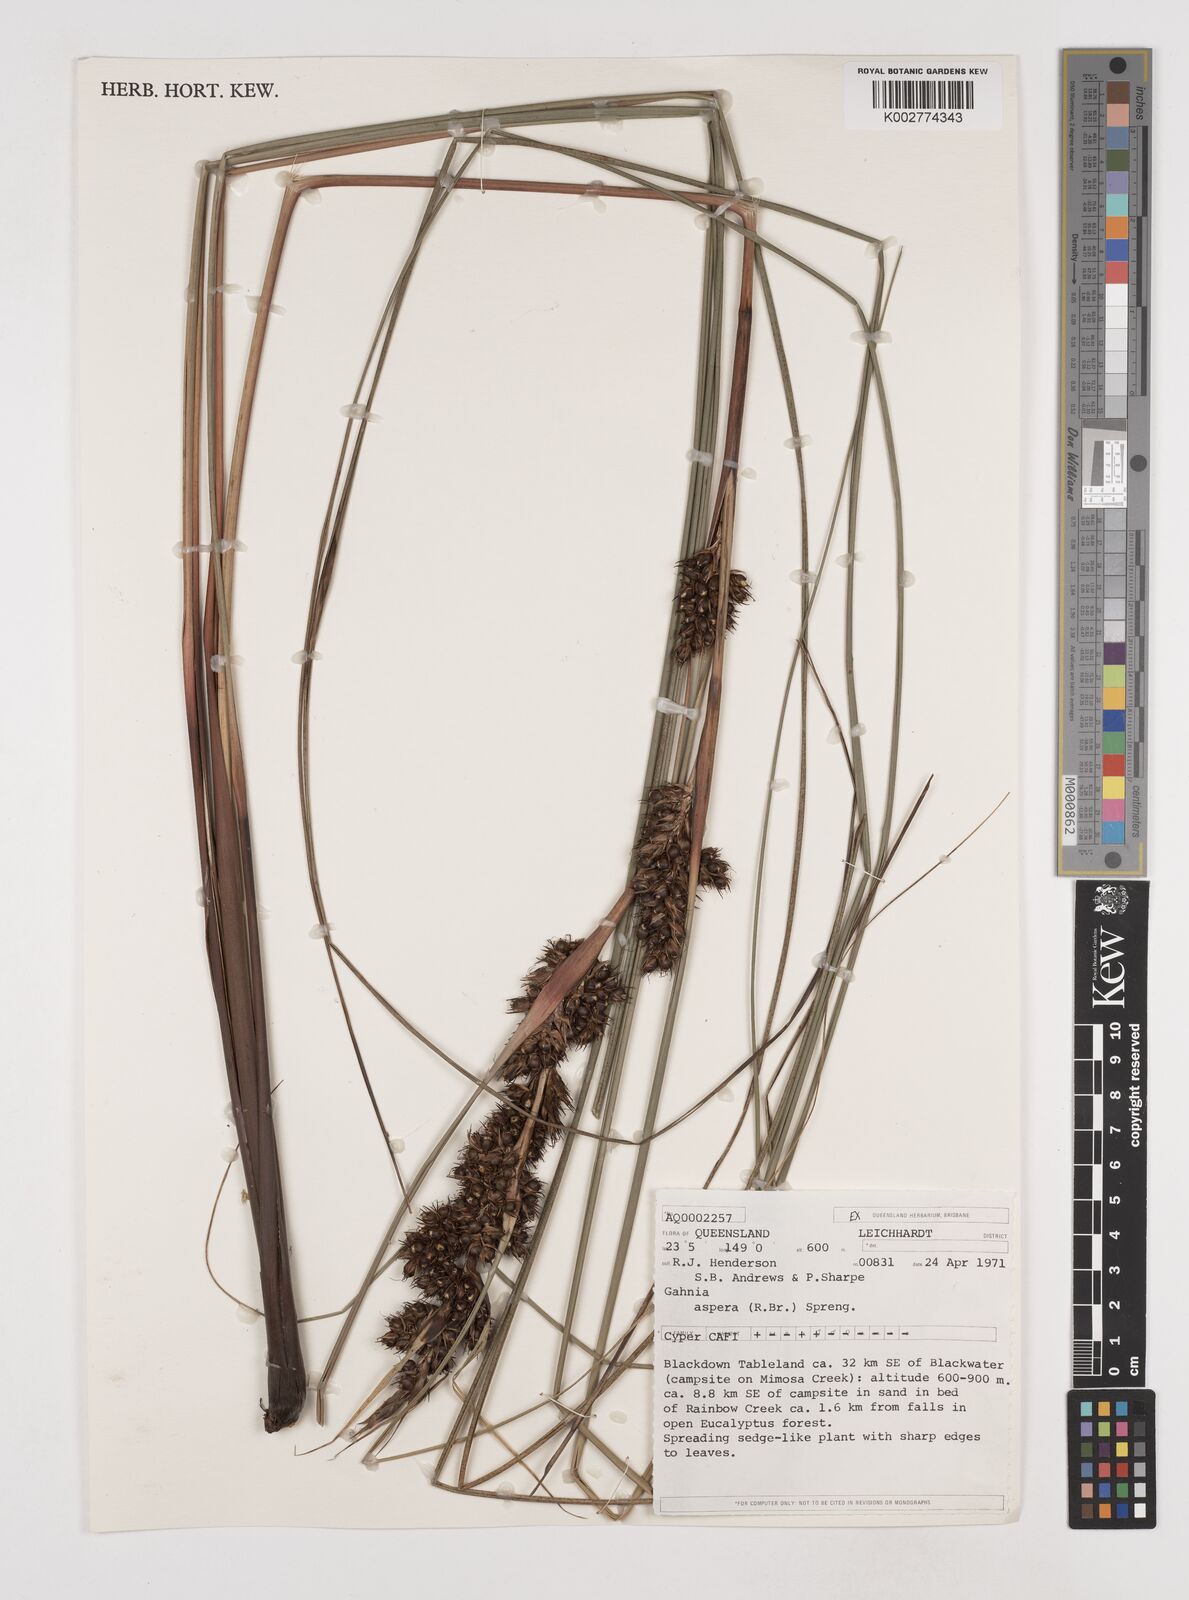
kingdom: Plantae
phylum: Tracheophyta
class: Liliopsida
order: Poales
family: Cyperaceae
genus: Gahnia
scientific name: Gahnia aspera
